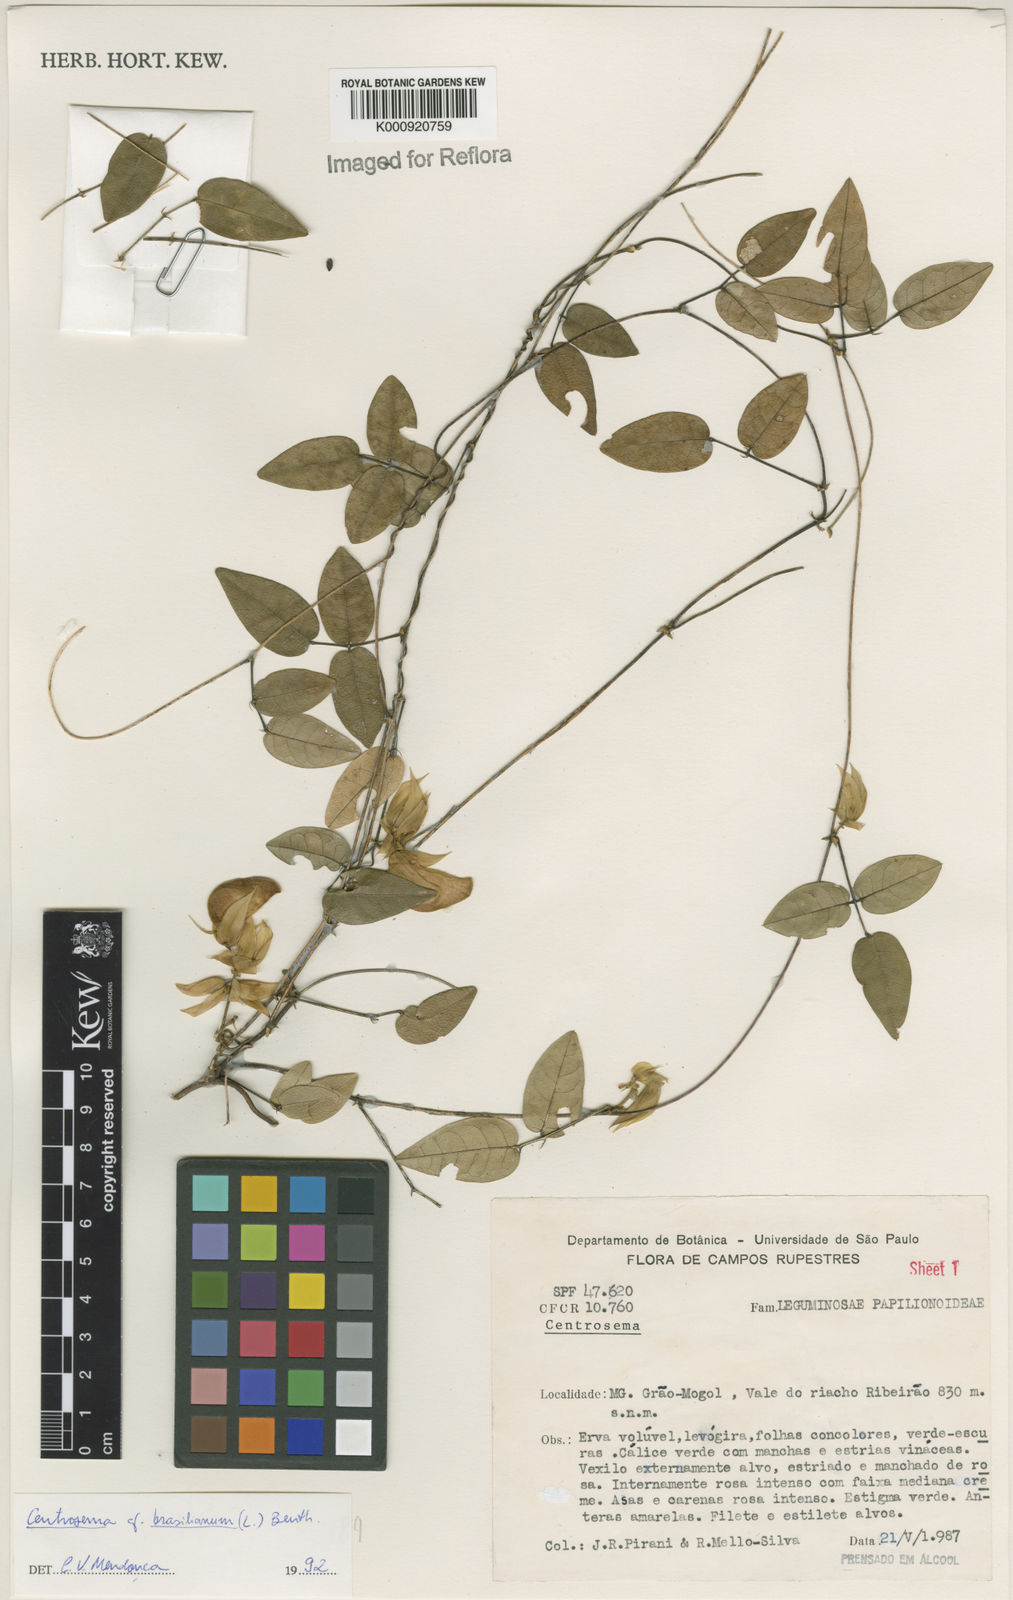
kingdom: Plantae
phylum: Tracheophyta
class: Magnoliopsida
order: Fabales
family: Fabaceae
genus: Centrosema
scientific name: Centrosema brasilianum
